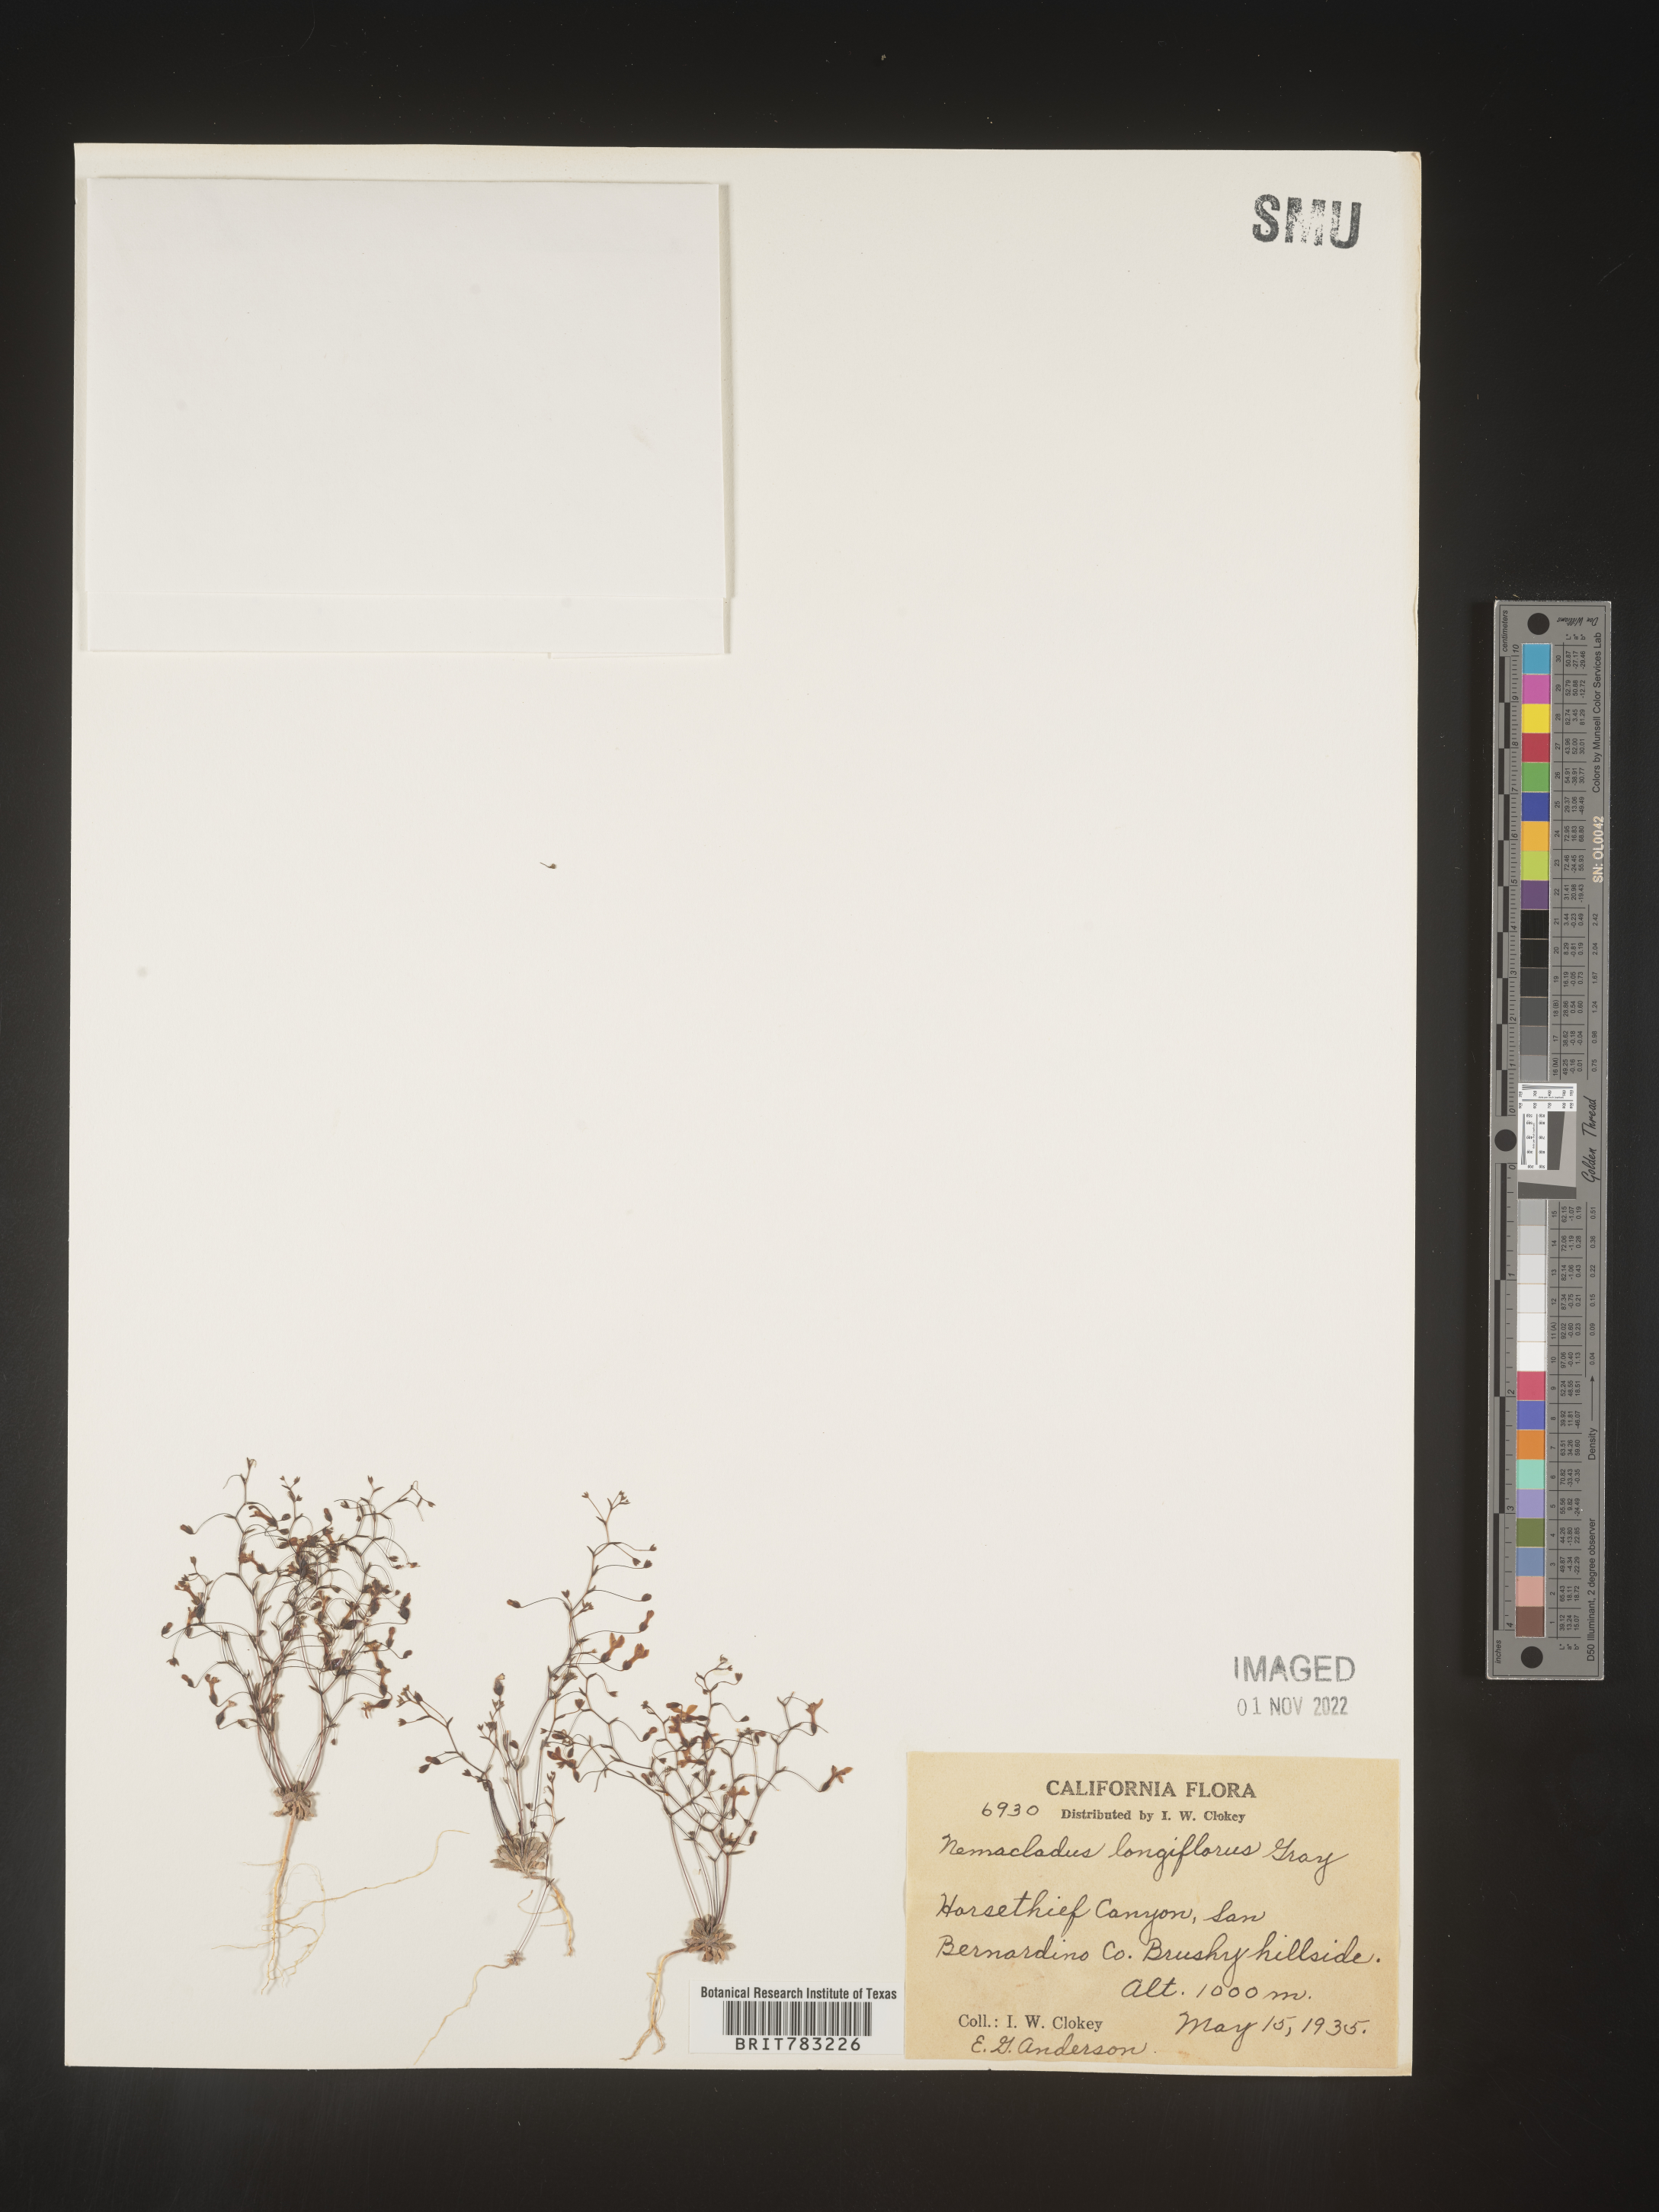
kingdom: Plantae
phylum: Tracheophyta
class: Magnoliopsida
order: Asterales
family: Campanulaceae
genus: Nemacladus
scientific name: Nemacladus
